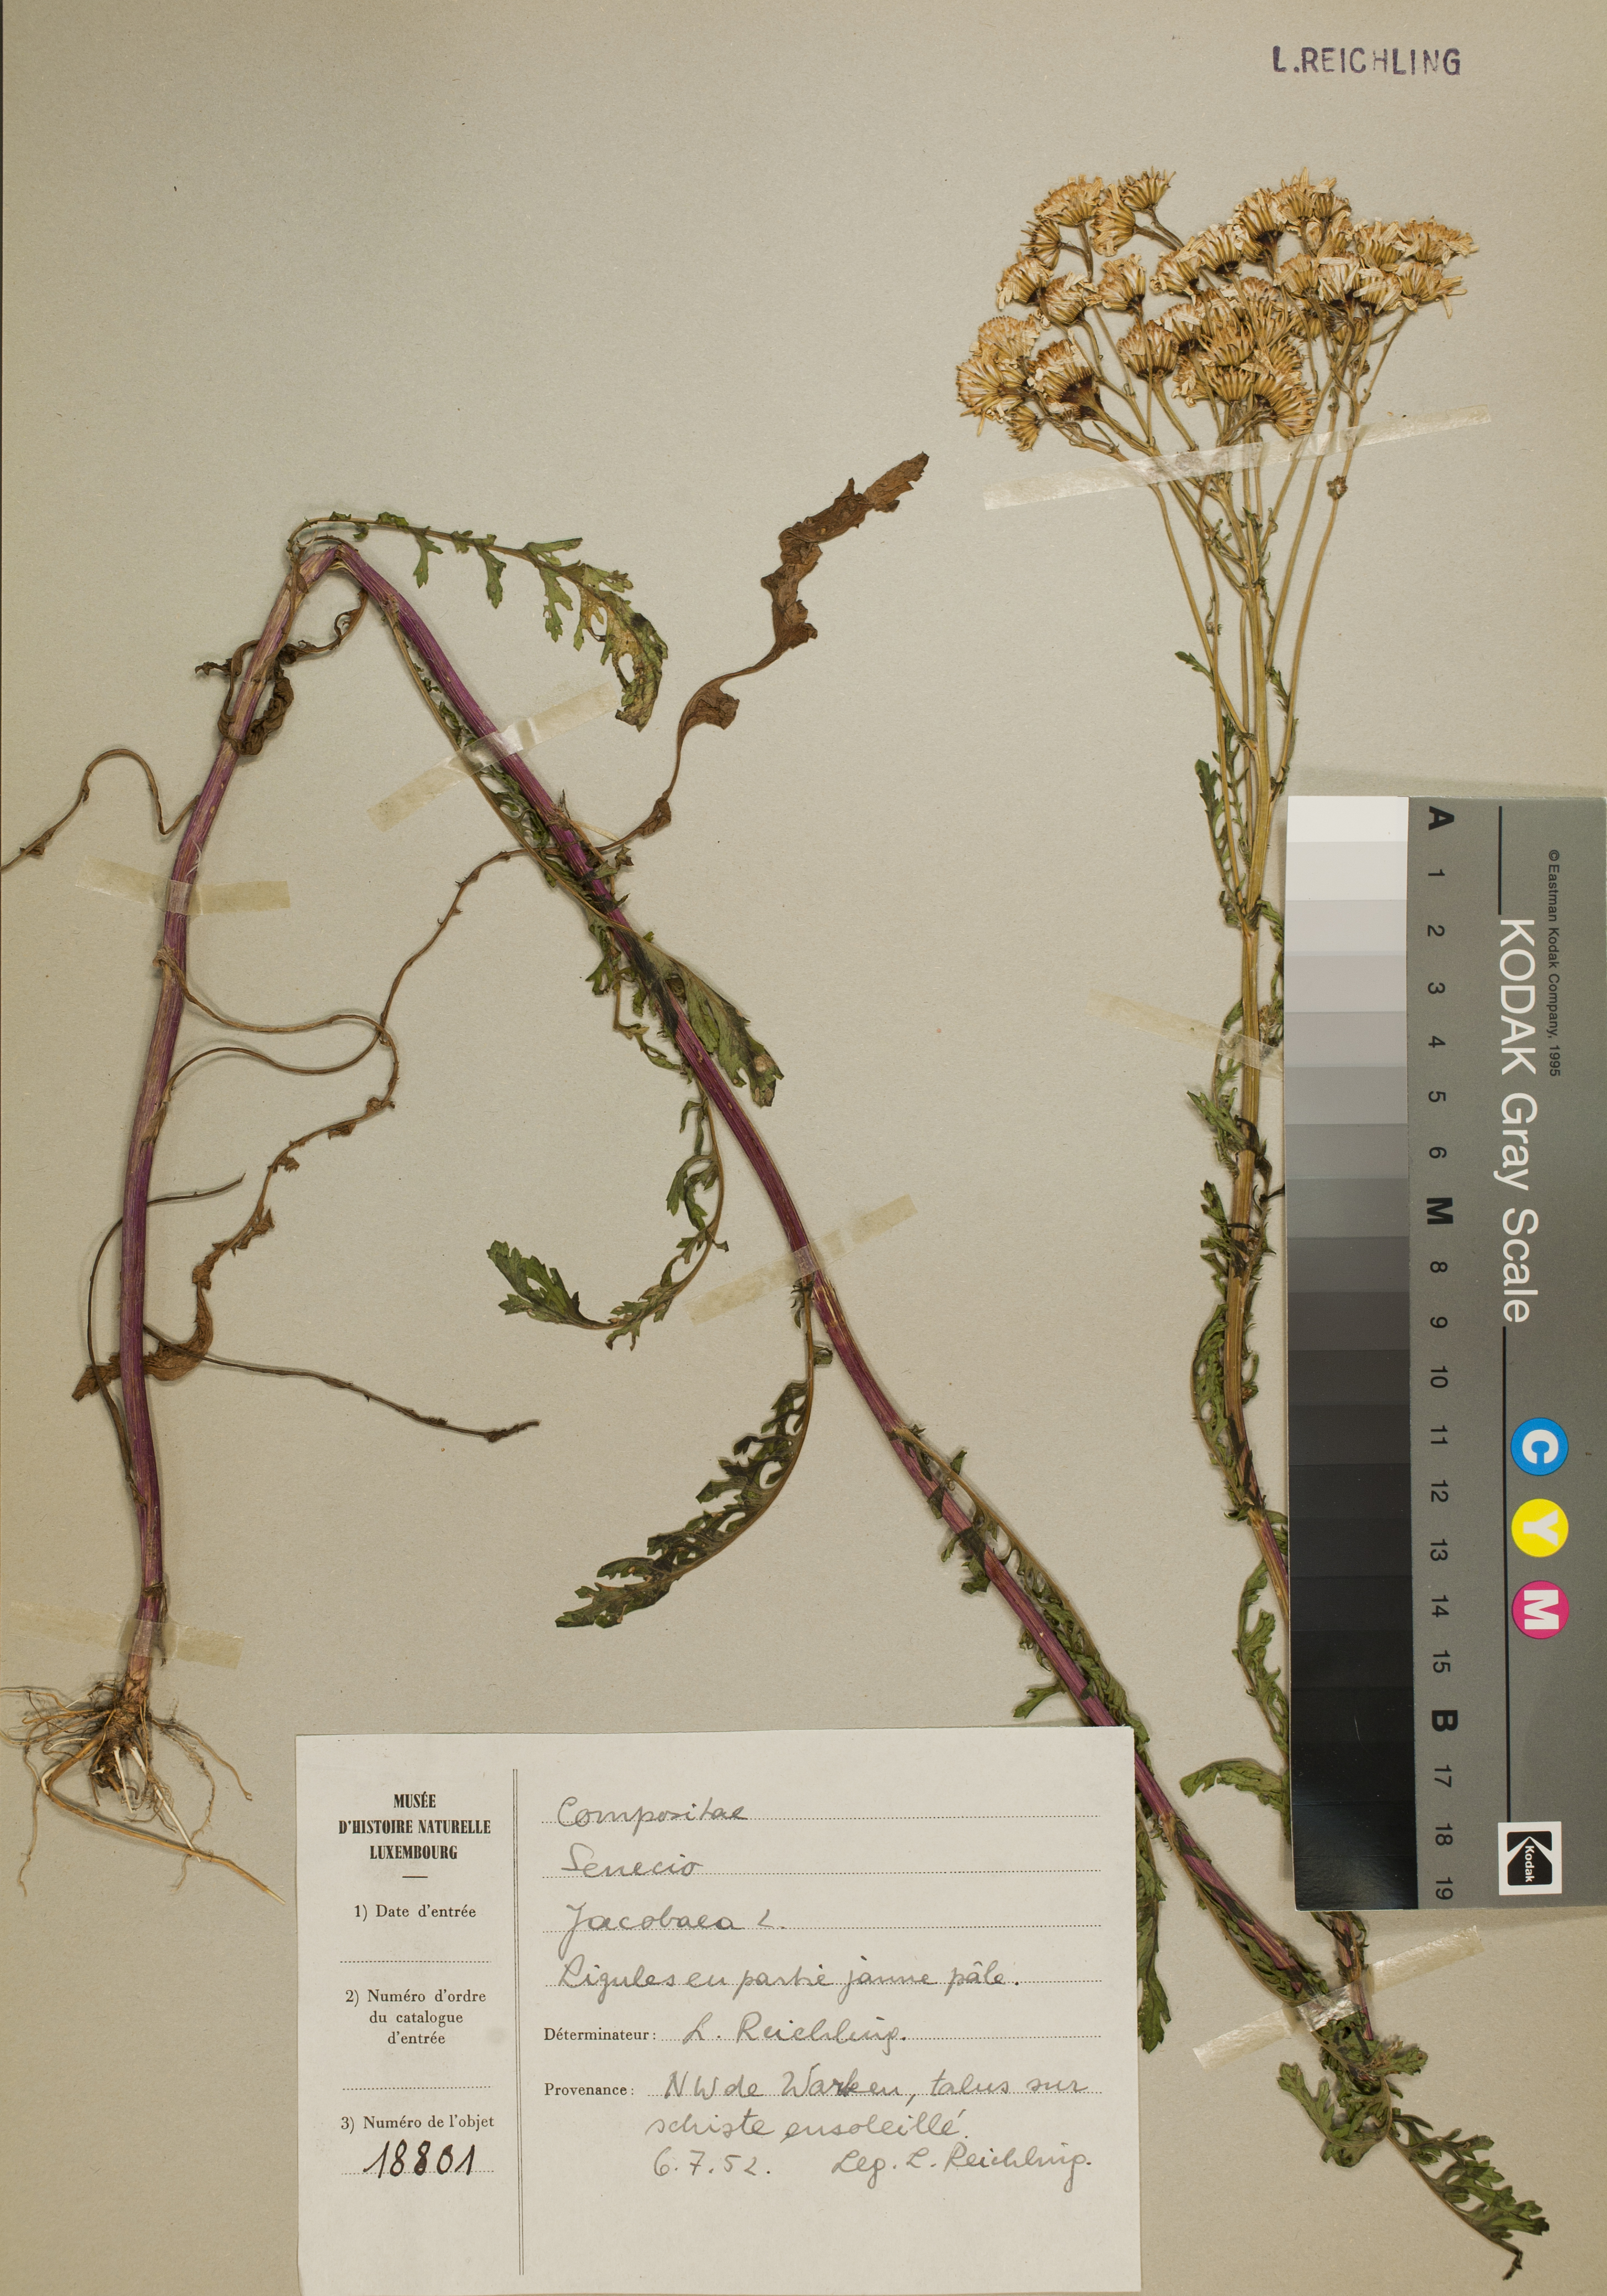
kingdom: Plantae
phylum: Tracheophyta
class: Magnoliopsida
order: Asterales
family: Asteraceae
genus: Jacobaea
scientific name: Jacobaea vulgaris
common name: Stinking willie
